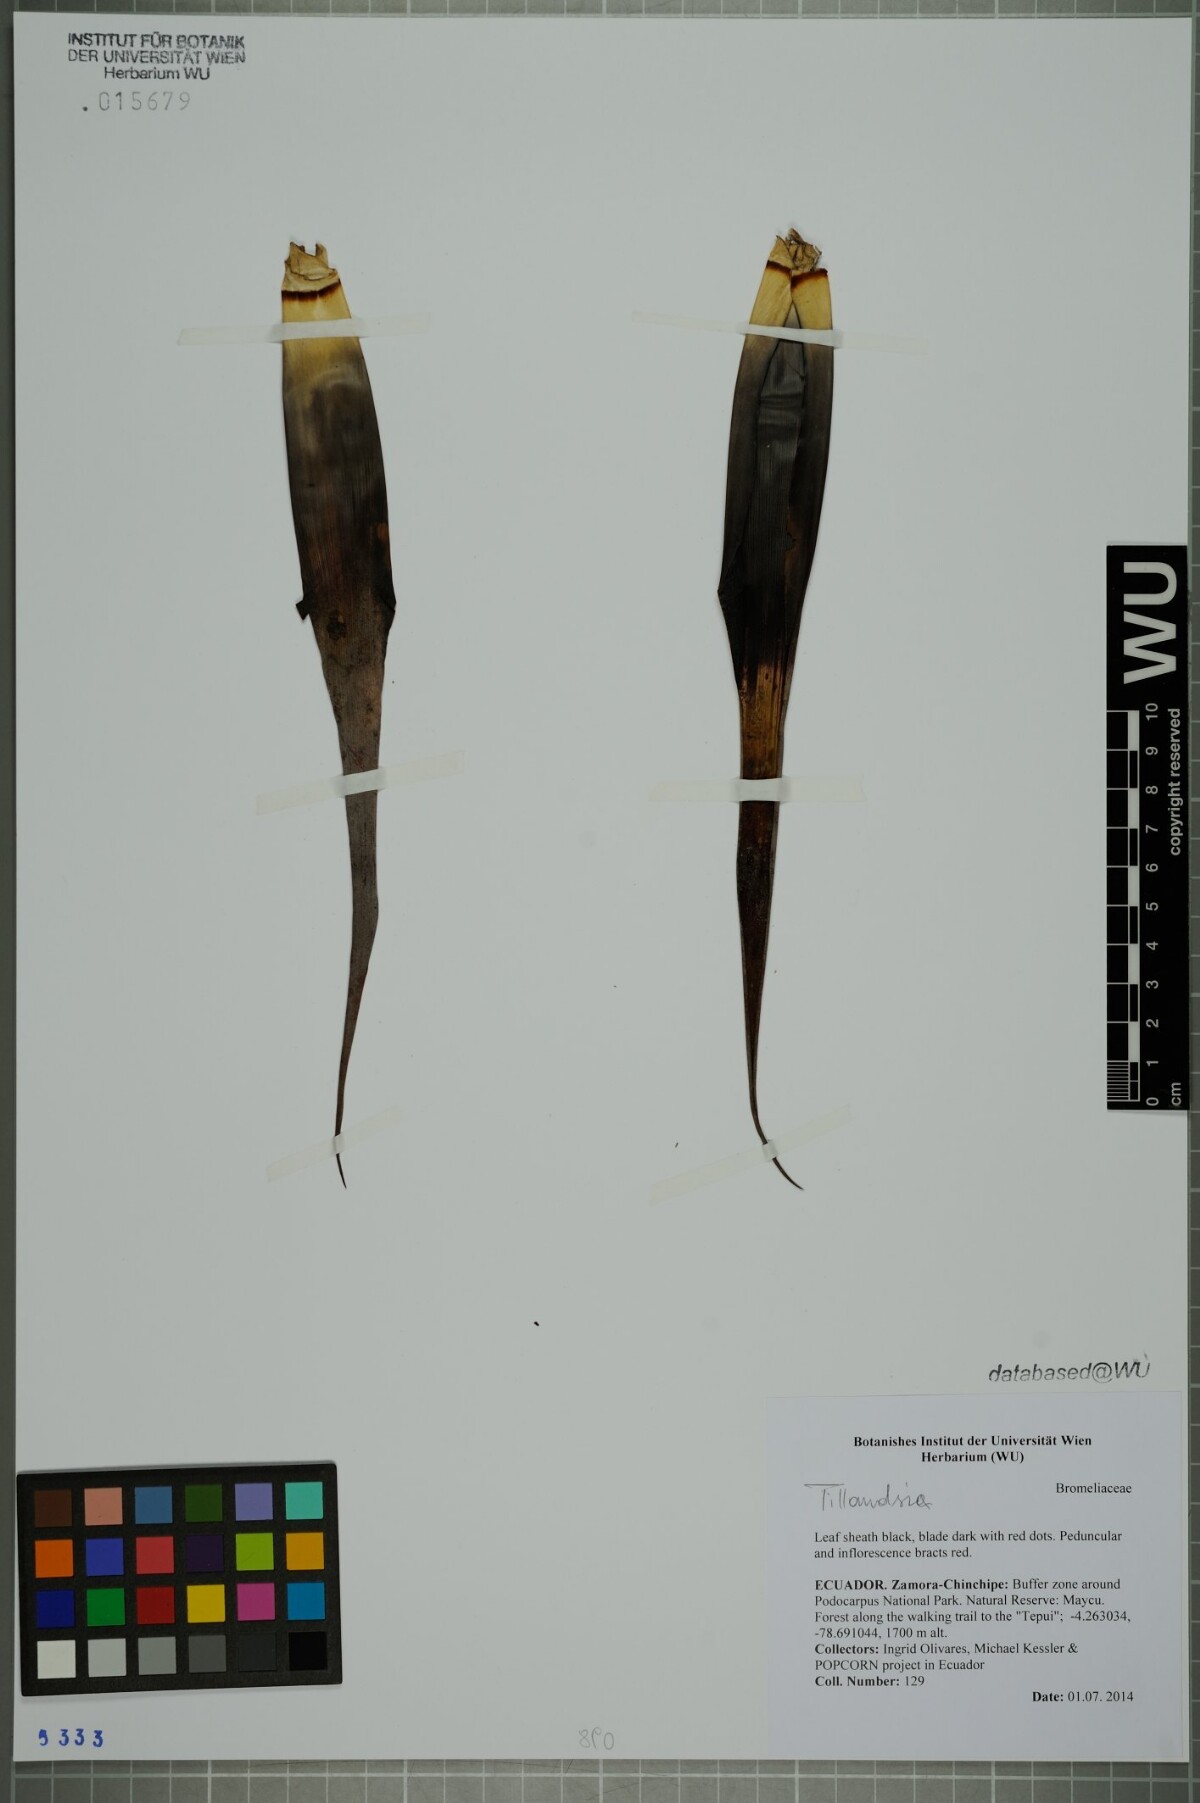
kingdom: Plantae
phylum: Tracheophyta
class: Liliopsida
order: Poales
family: Bromeliaceae
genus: Tillandsia
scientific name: Tillandsia
